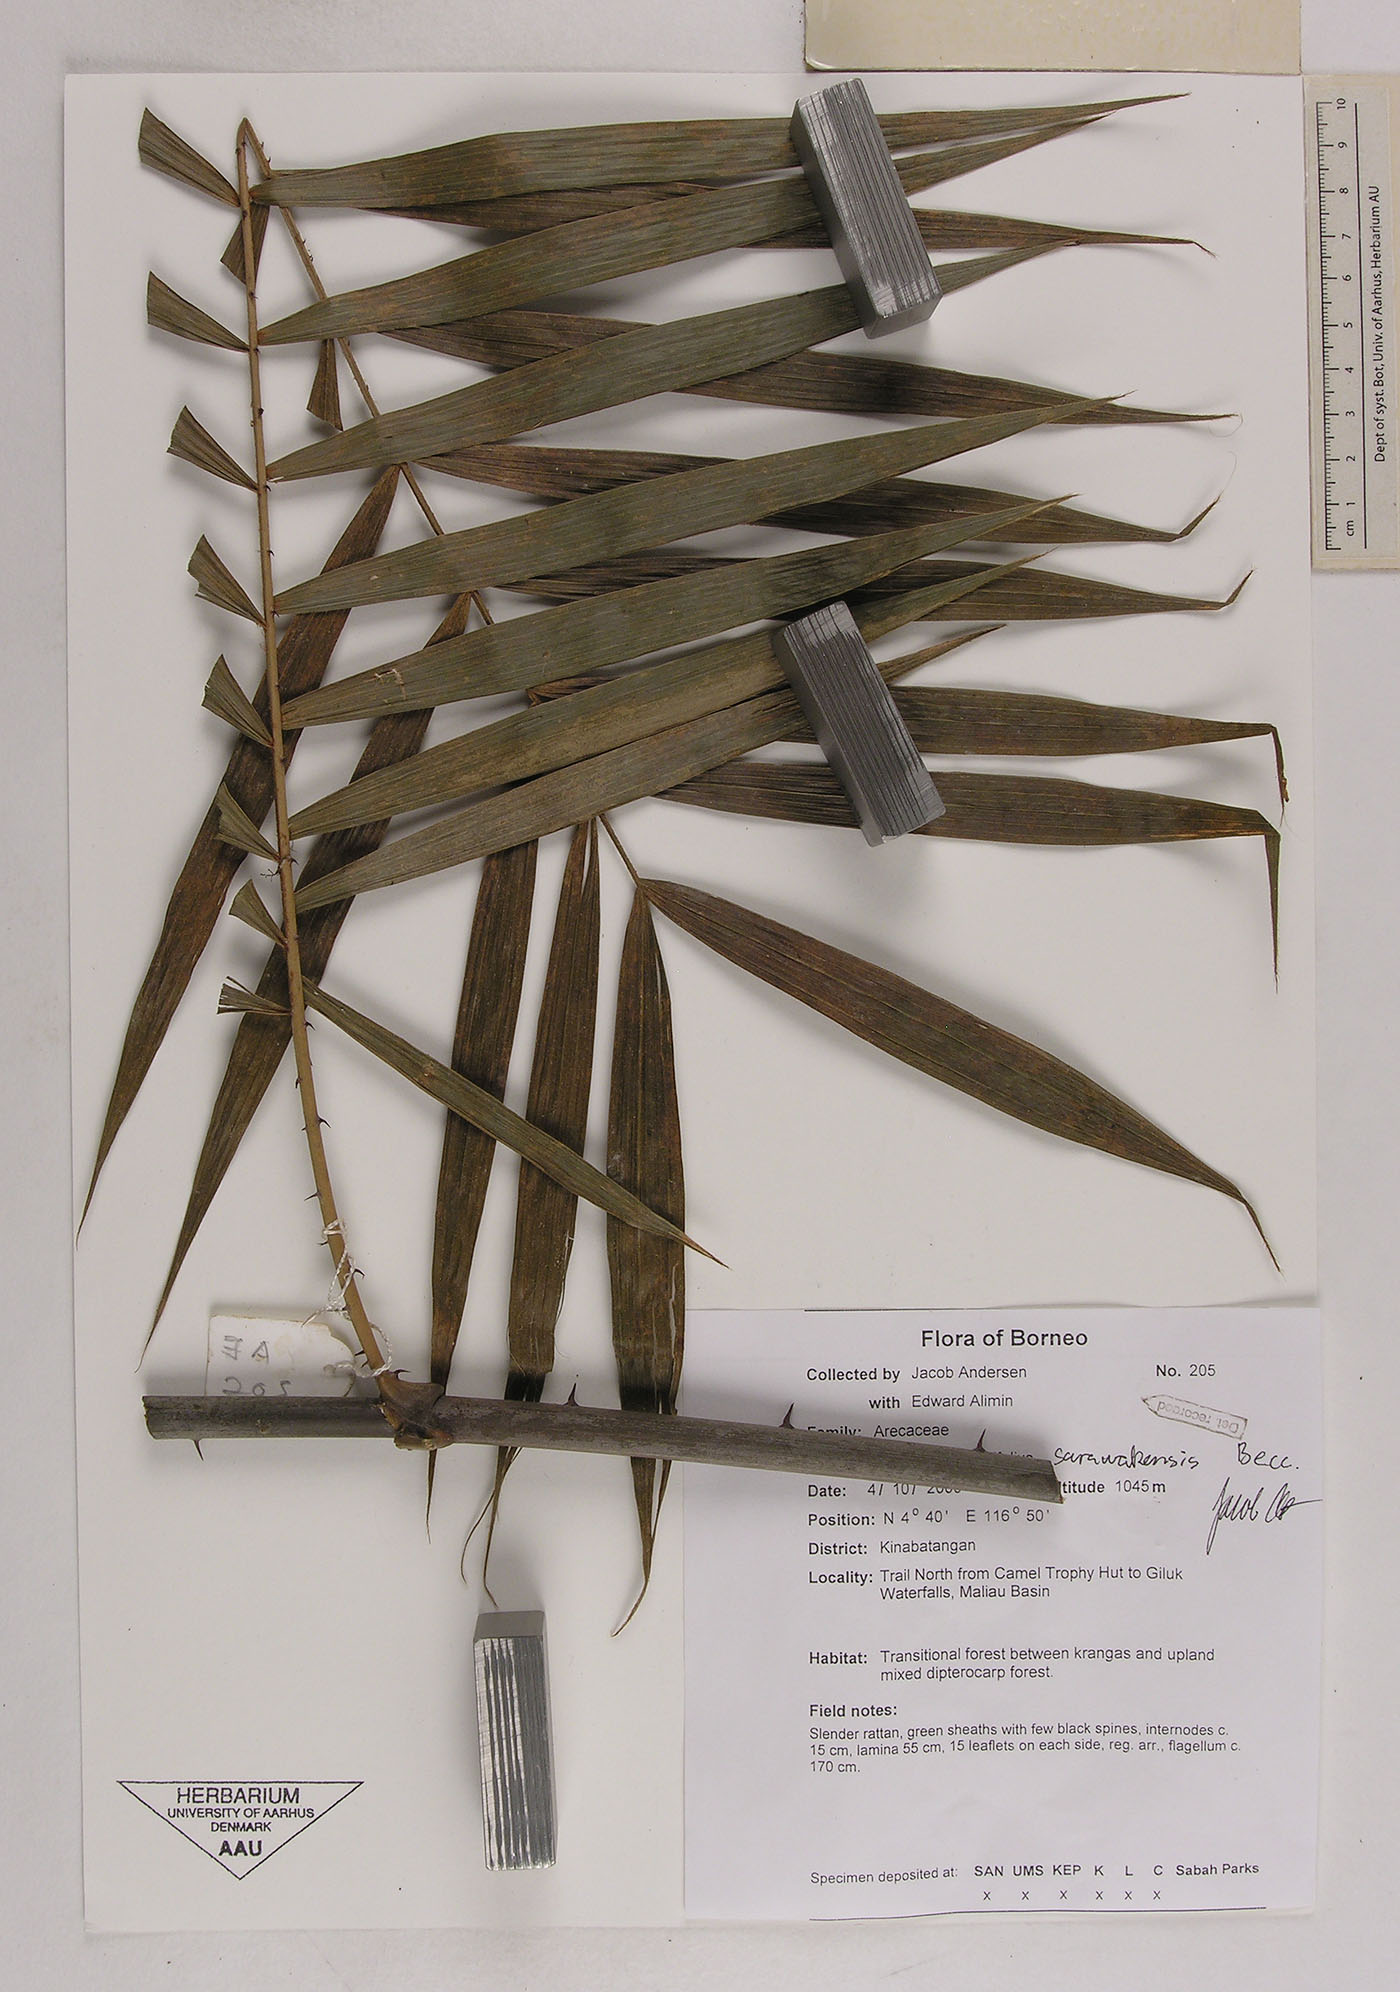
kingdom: Plantae
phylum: Tracheophyta
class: Liliopsida
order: Arecales
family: Arecaceae
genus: Calamus
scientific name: Calamus sarawakensis
